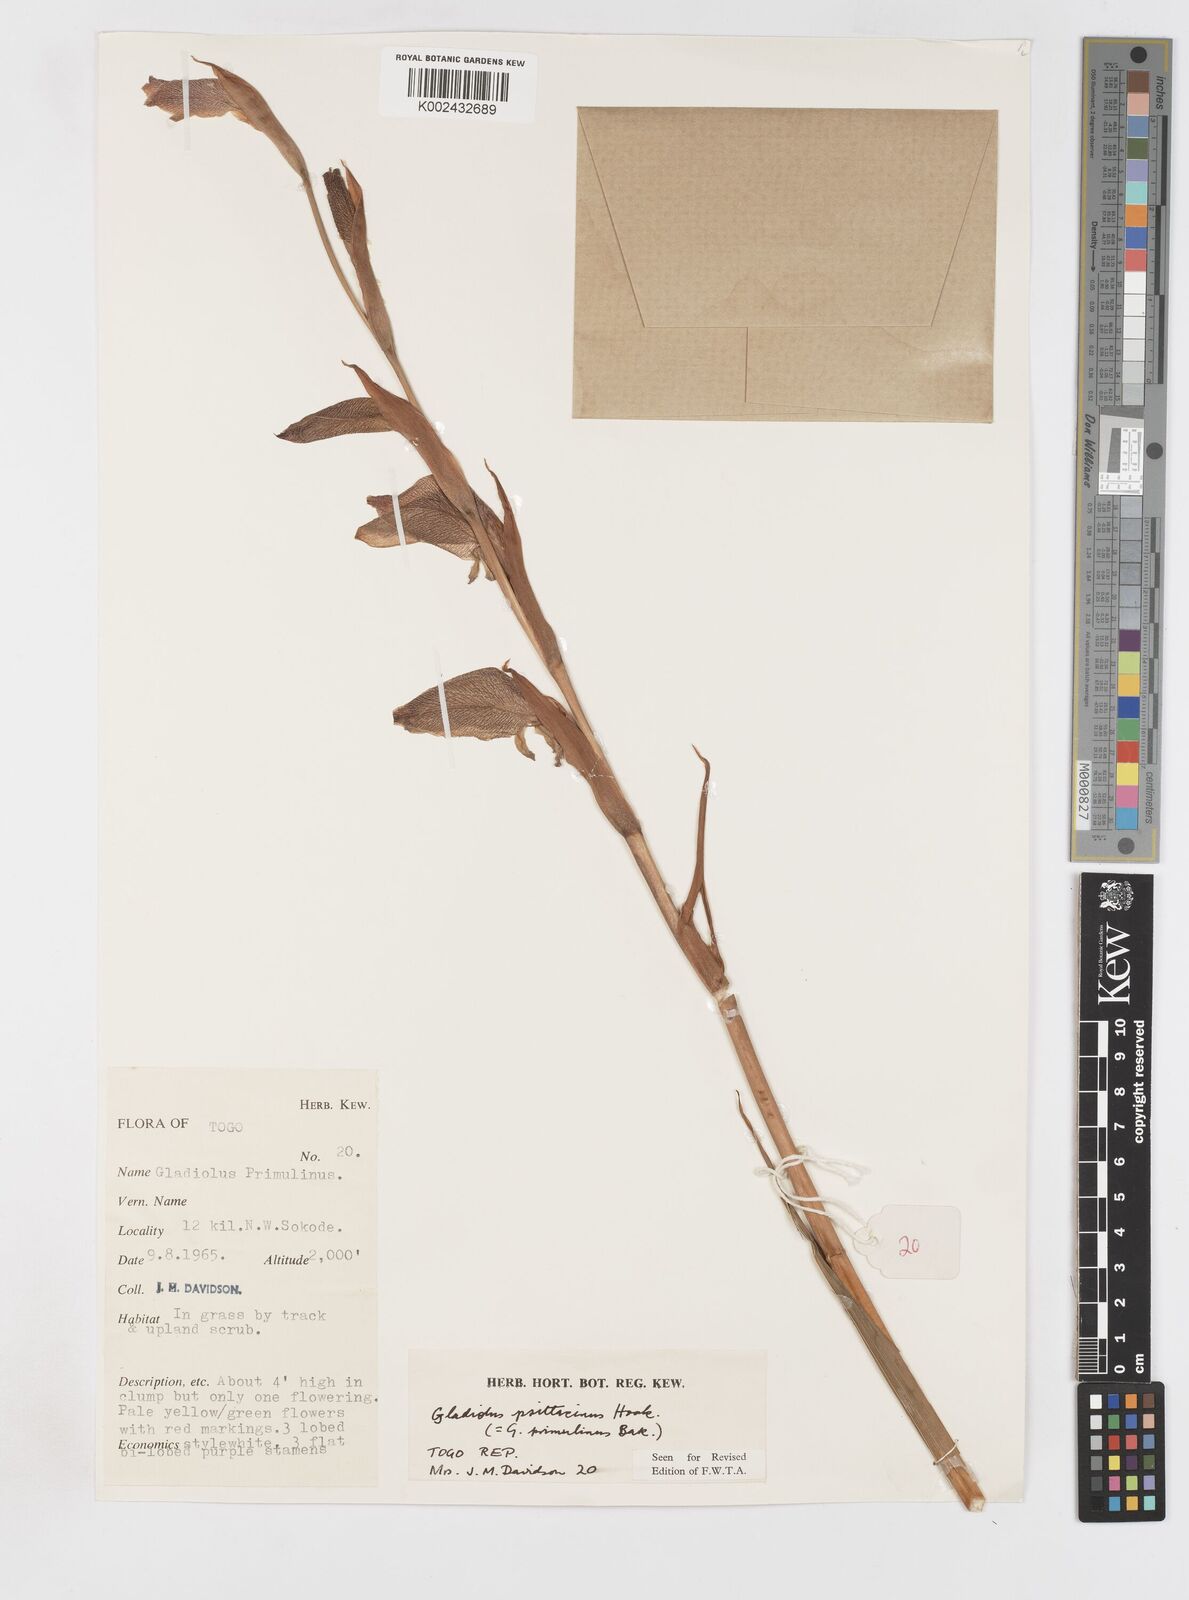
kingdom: Plantae
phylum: Tracheophyta
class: Liliopsida
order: Asparagales
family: Iridaceae
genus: Gladiolus
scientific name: Gladiolus dalenii
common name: Cornflag
